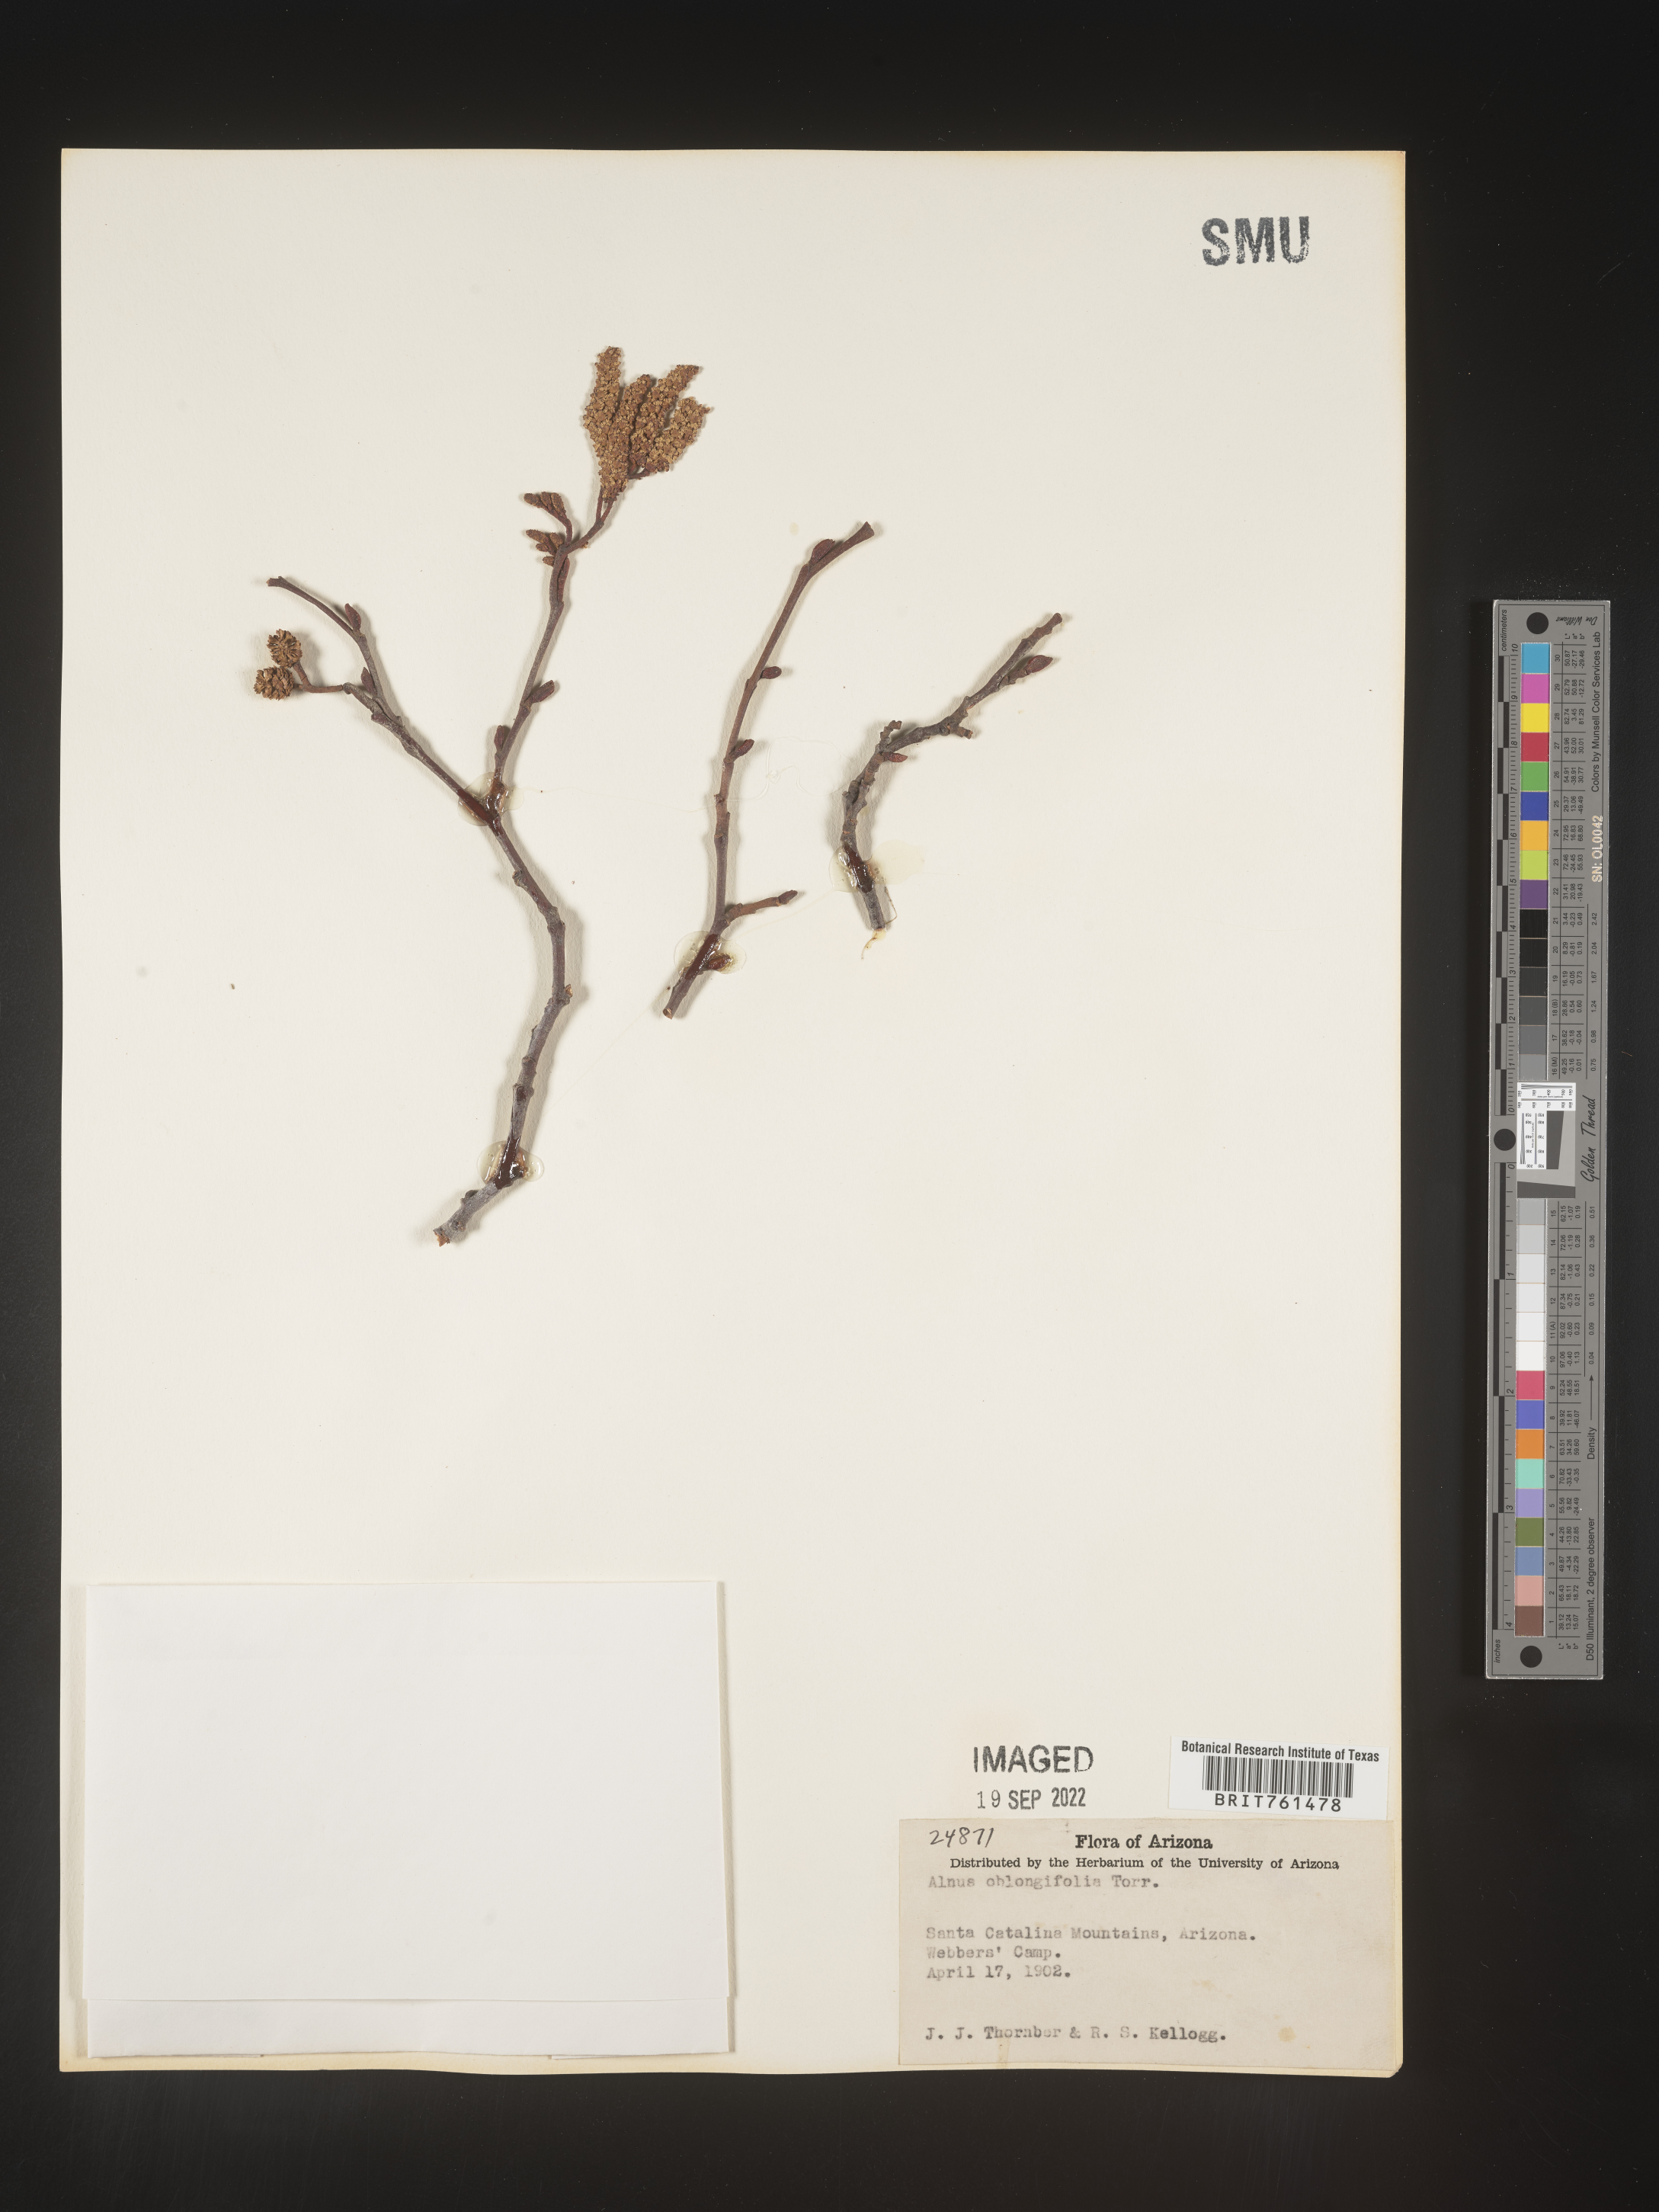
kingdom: Plantae
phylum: Tracheophyta
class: Magnoliopsida
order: Fagales
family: Betulaceae
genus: Alnus
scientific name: Alnus
